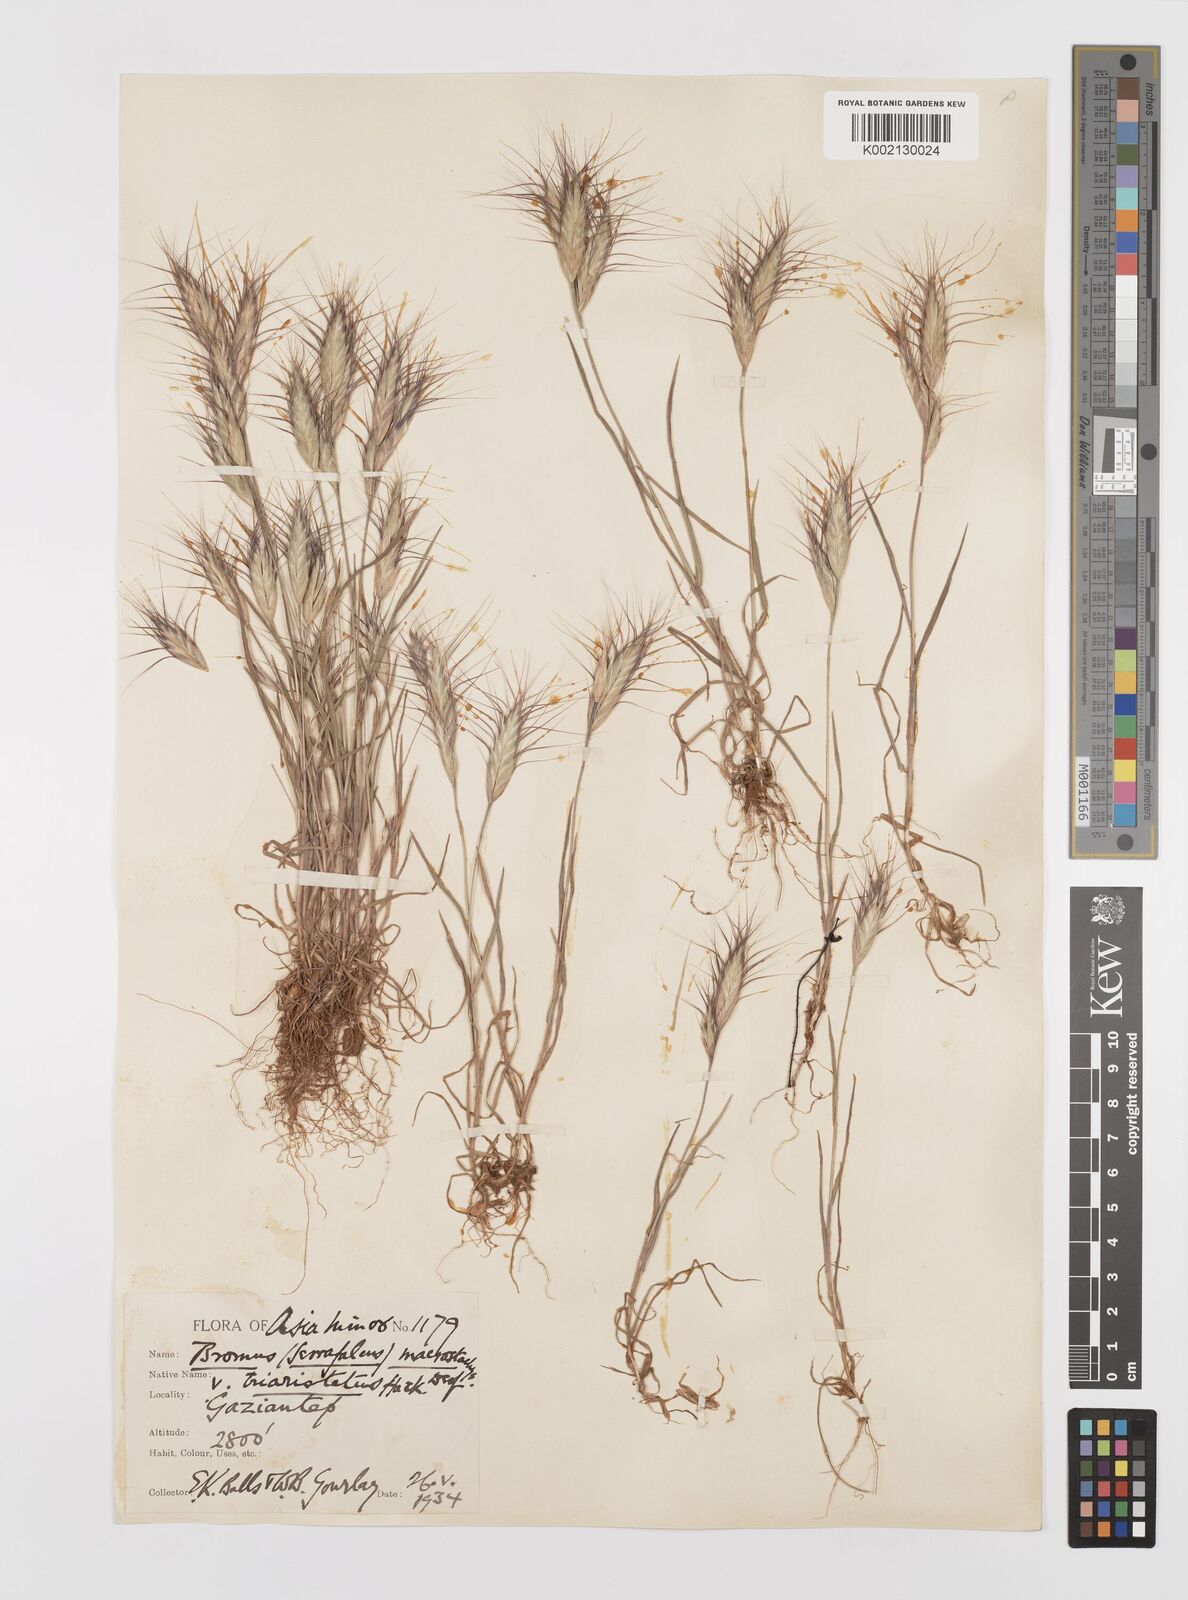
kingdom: Plantae
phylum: Tracheophyta
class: Liliopsida
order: Poales
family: Poaceae
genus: Bromus
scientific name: Bromus danthoniae
